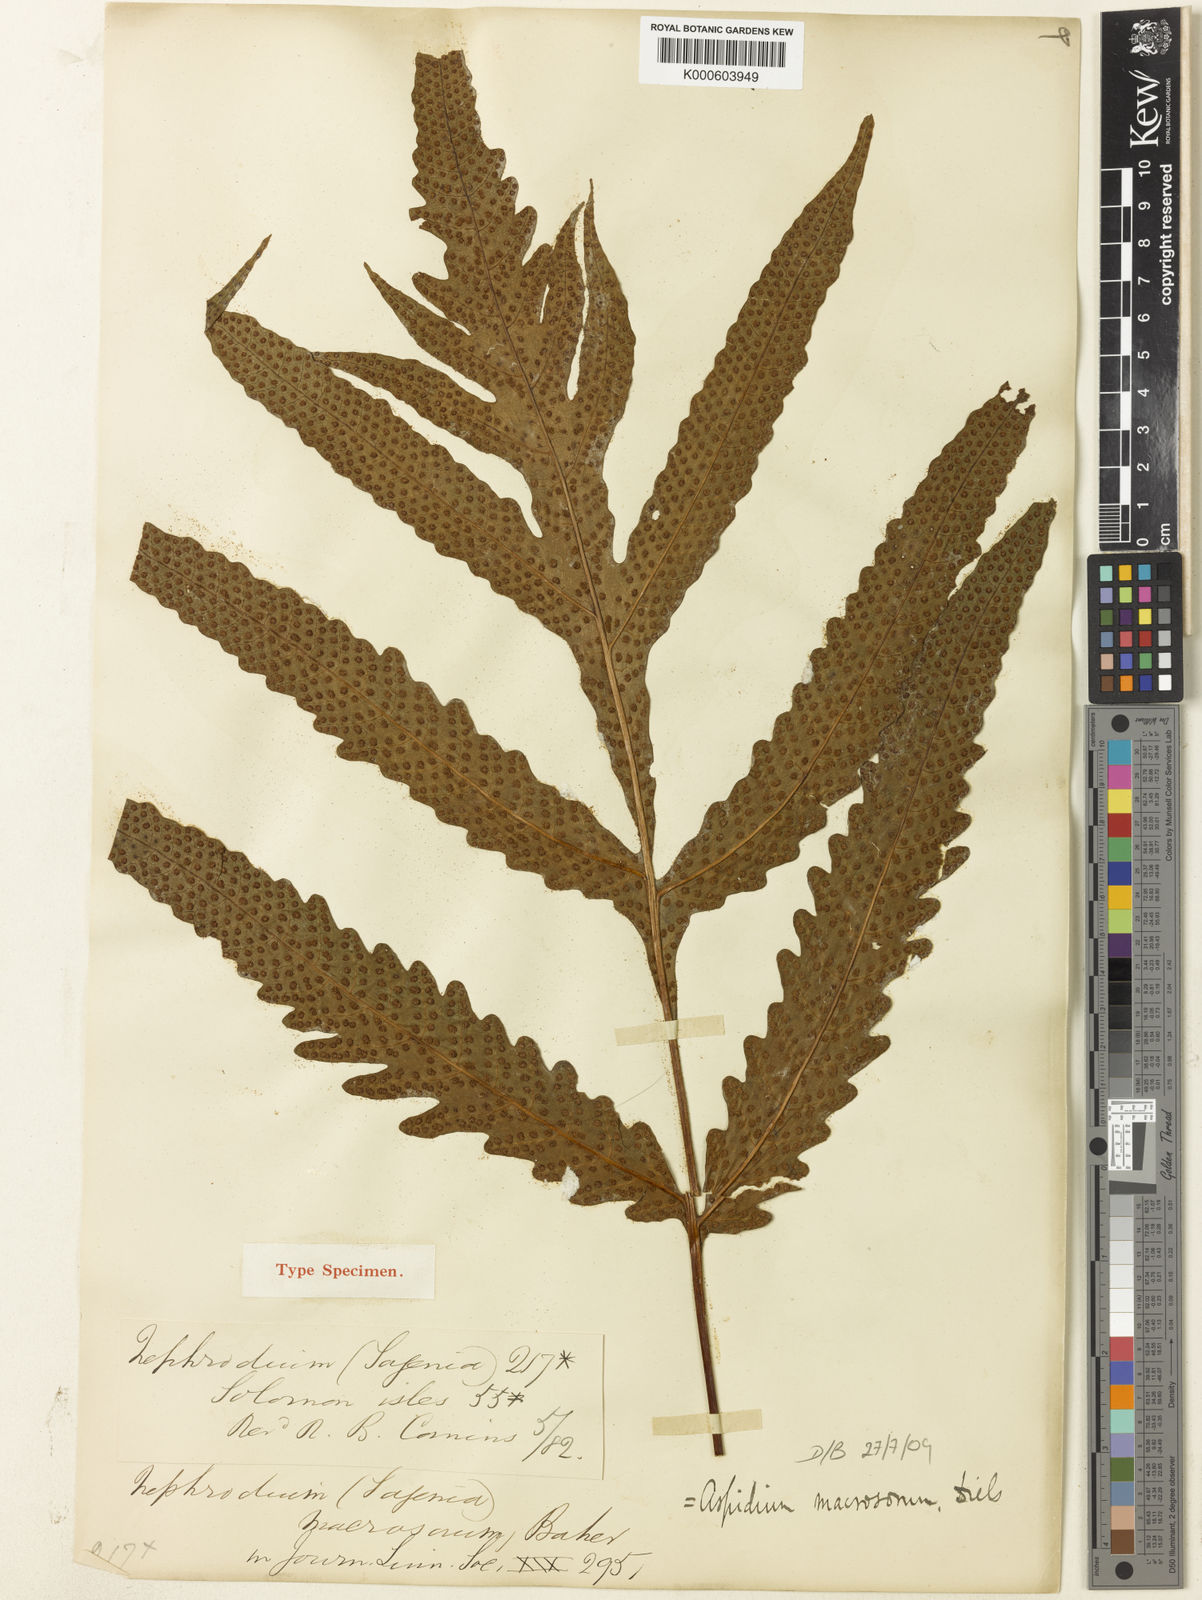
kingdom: Plantae
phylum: Tracheophyta
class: Polypodiopsida
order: Polypodiales
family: Tectariaceae
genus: Tectaria
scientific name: Tectaria repanda
